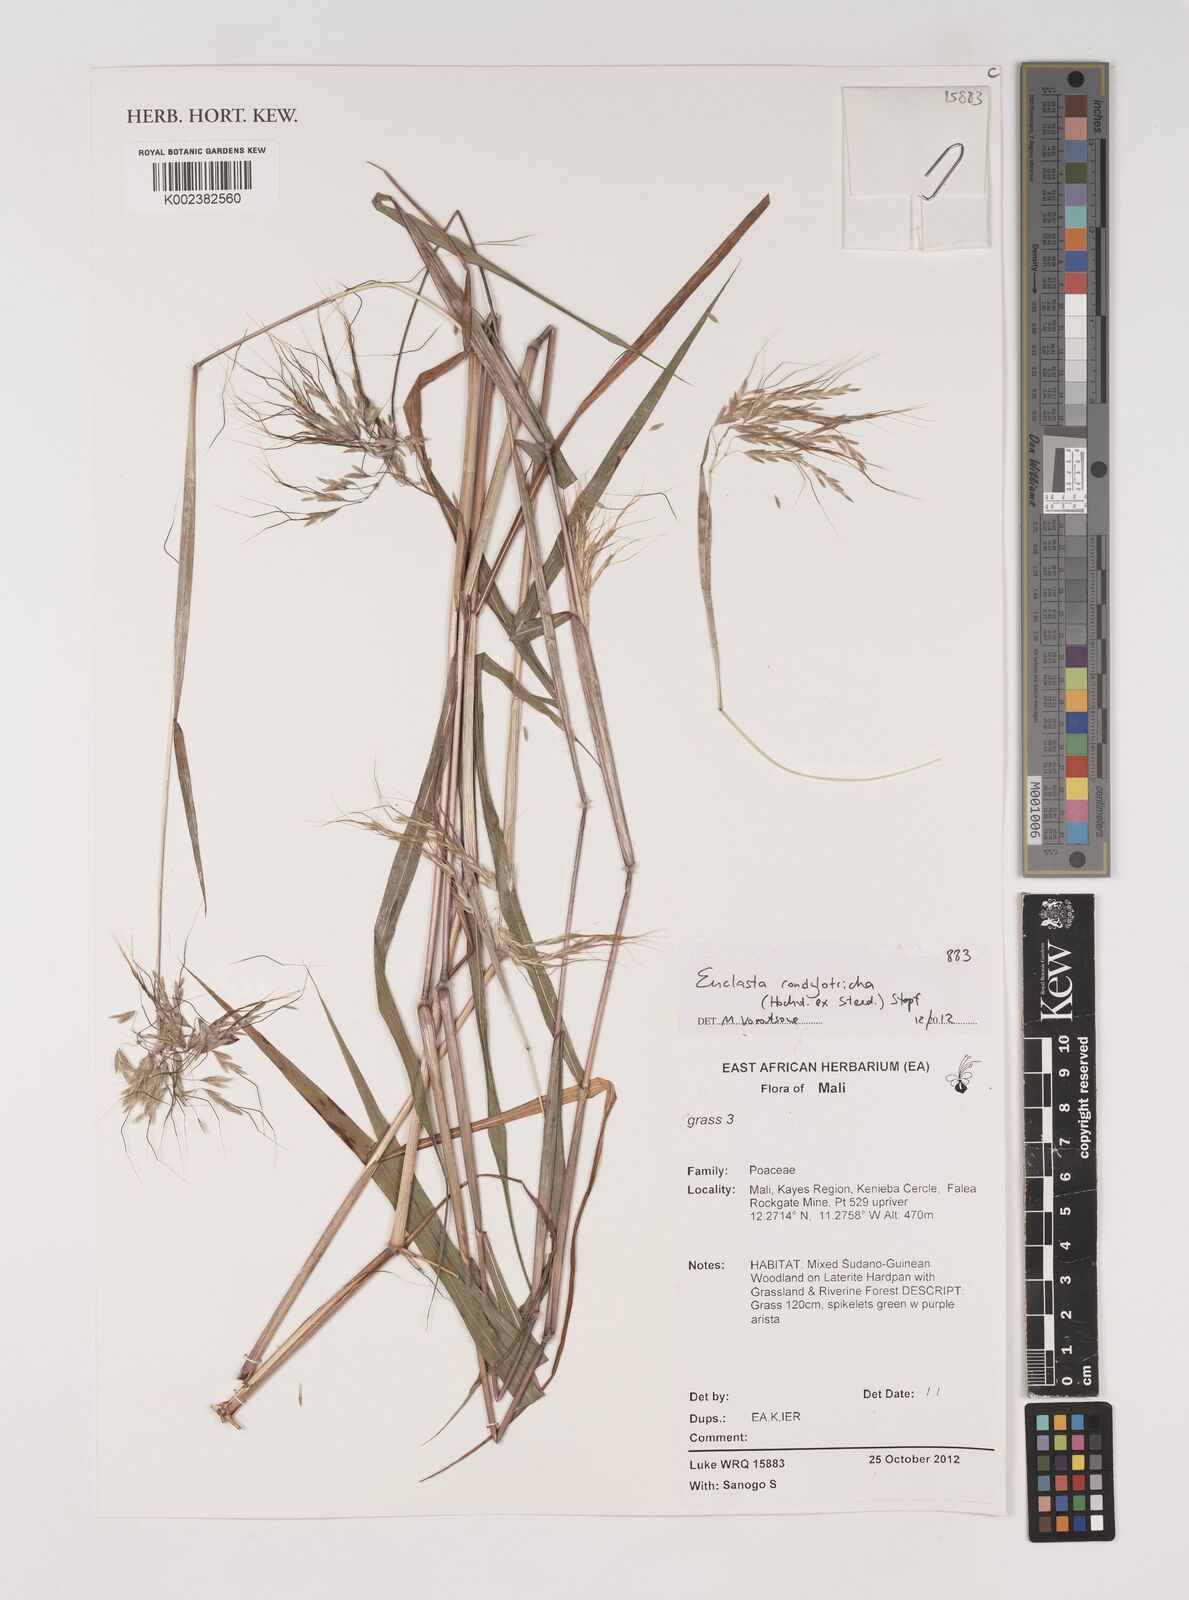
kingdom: Plantae
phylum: Tracheophyta
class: Liliopsida
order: Poales
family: Poaceae
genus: Euclasta
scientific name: Euclasta condylotricha
